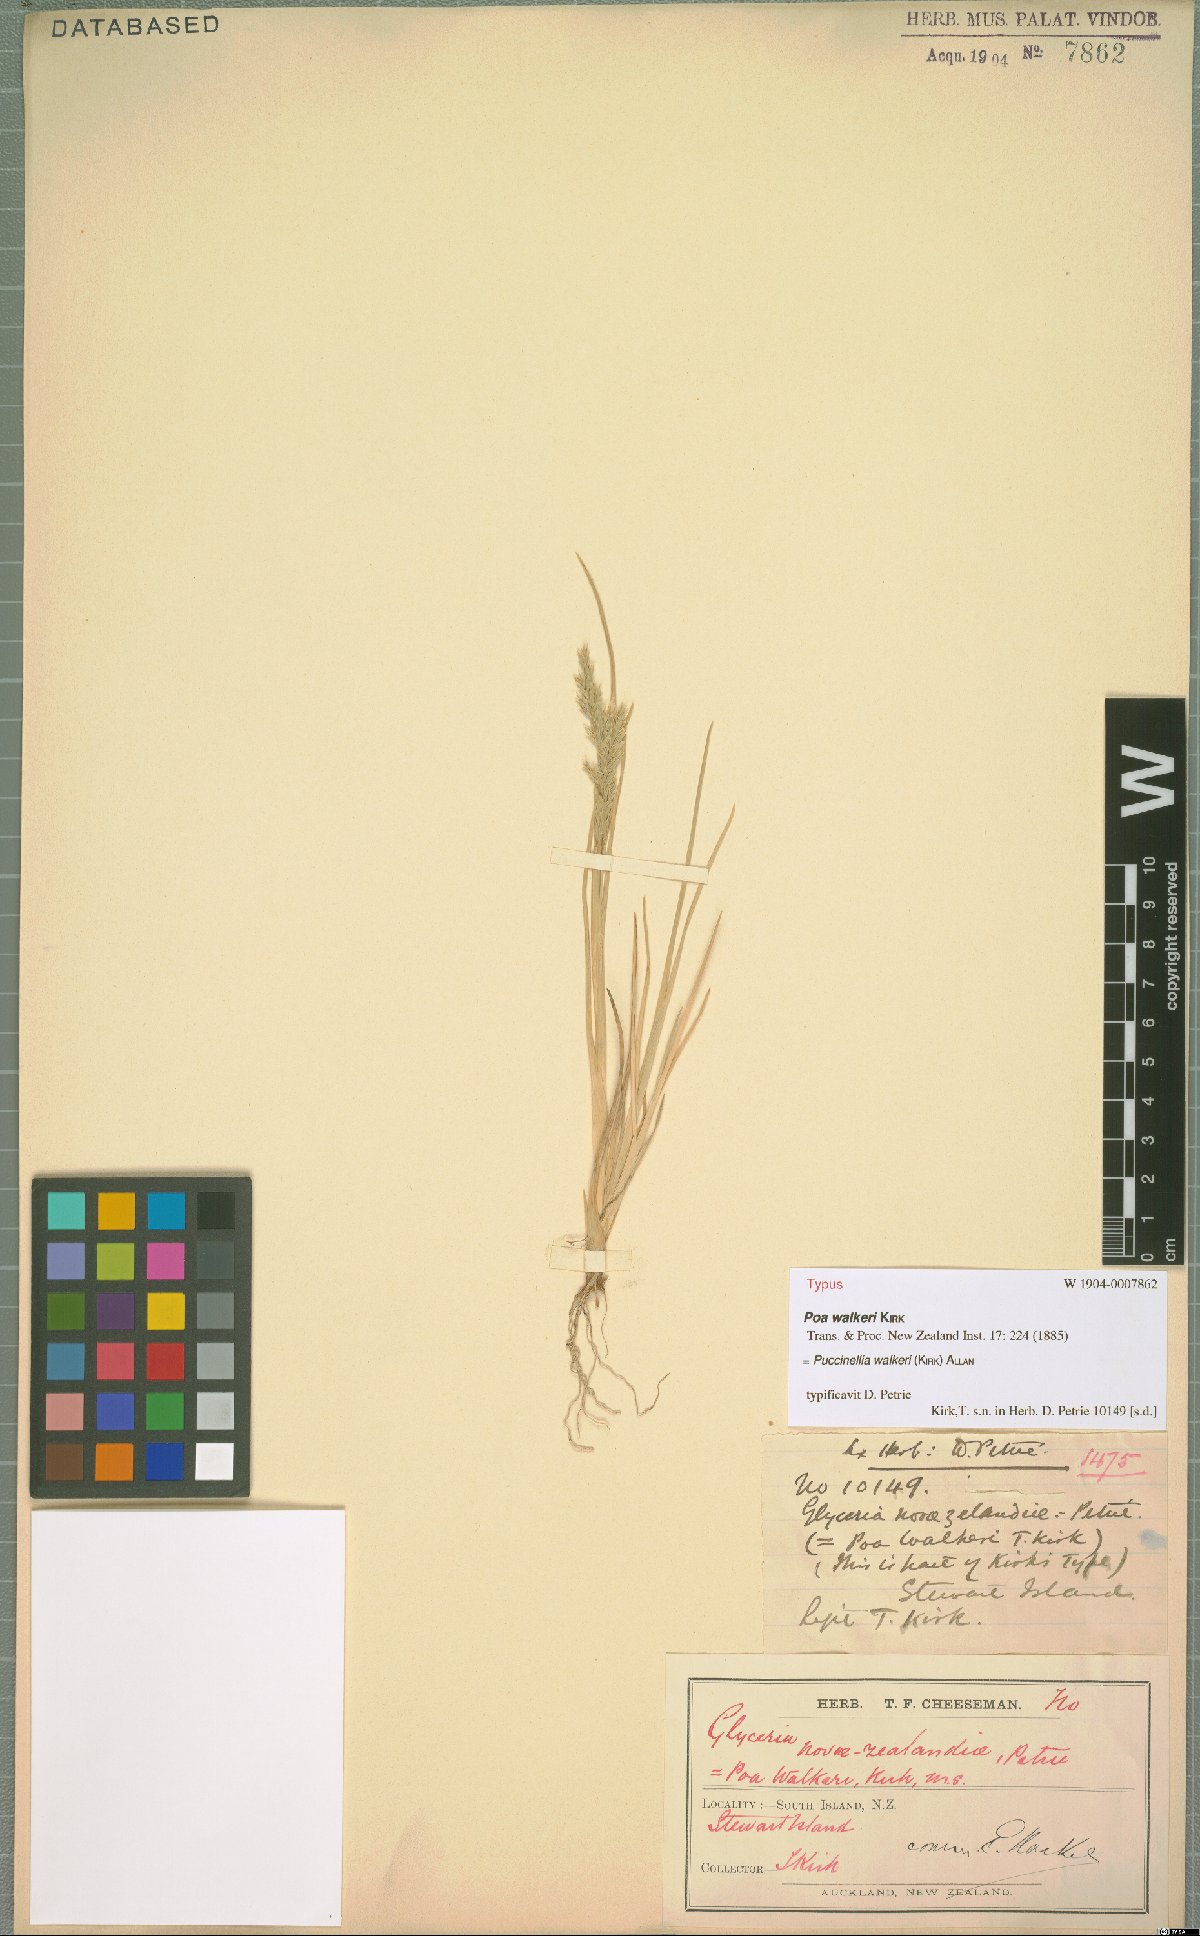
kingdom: Plantae
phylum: Tracheophyta
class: Liliopsida
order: Poales
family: Poaceae
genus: Puccinellia
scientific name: Puccinellia walkeri
